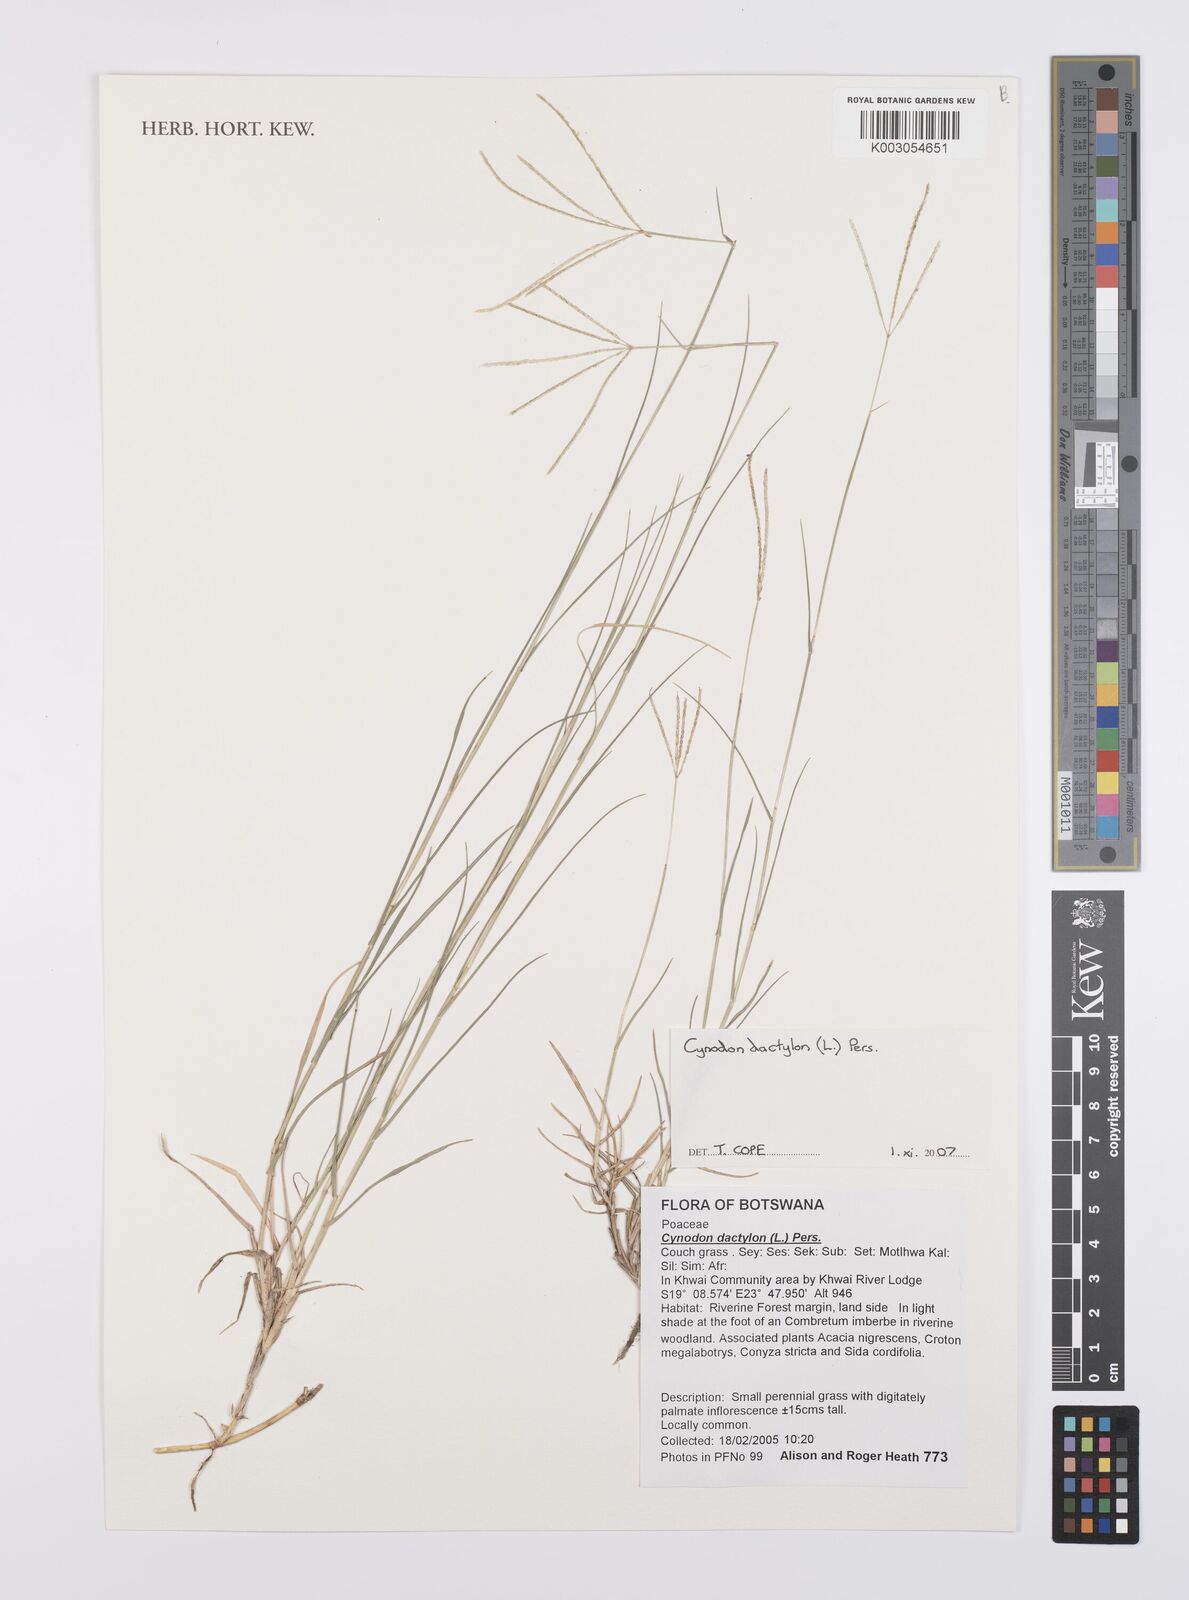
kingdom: Plantae
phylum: Tracheophyta
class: Liliopsida
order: Poales
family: Poaceae
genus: Cynodon
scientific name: Cynodon dactylon
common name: Bermuda grass
